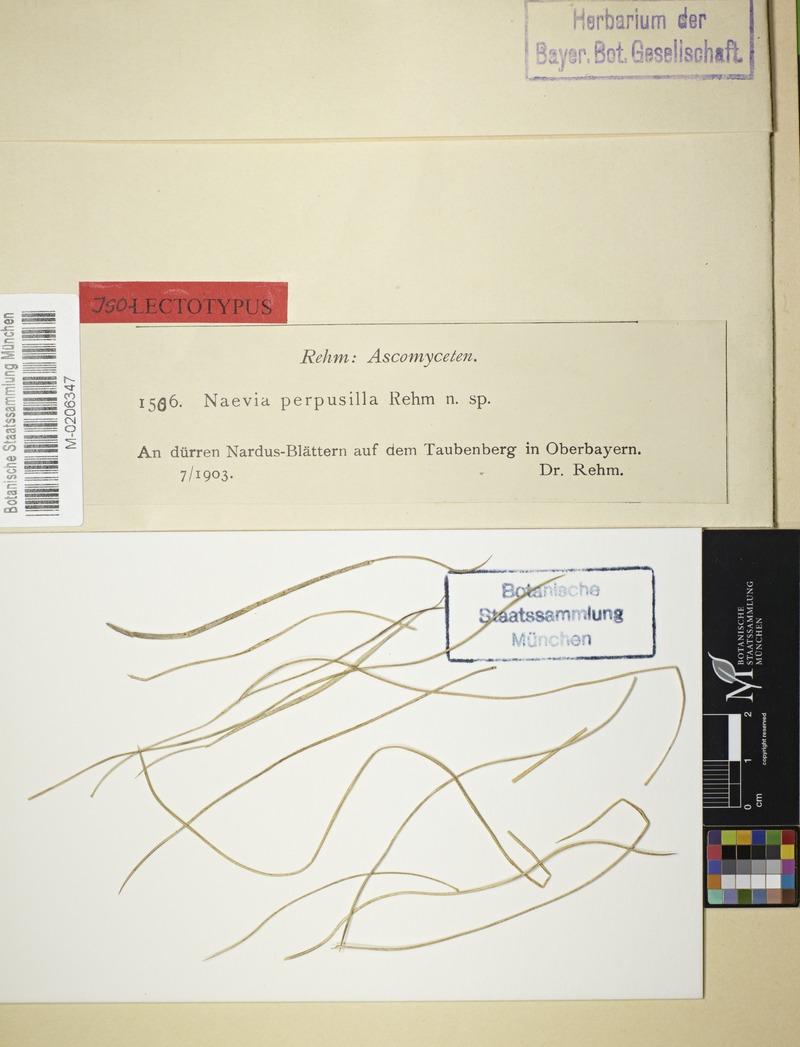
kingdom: Fungi
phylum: Ascomycota
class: Leotiomycetes
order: Helotiales
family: Calloriaceae
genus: Diplonaevia
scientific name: Diplonaevia perpusilla
